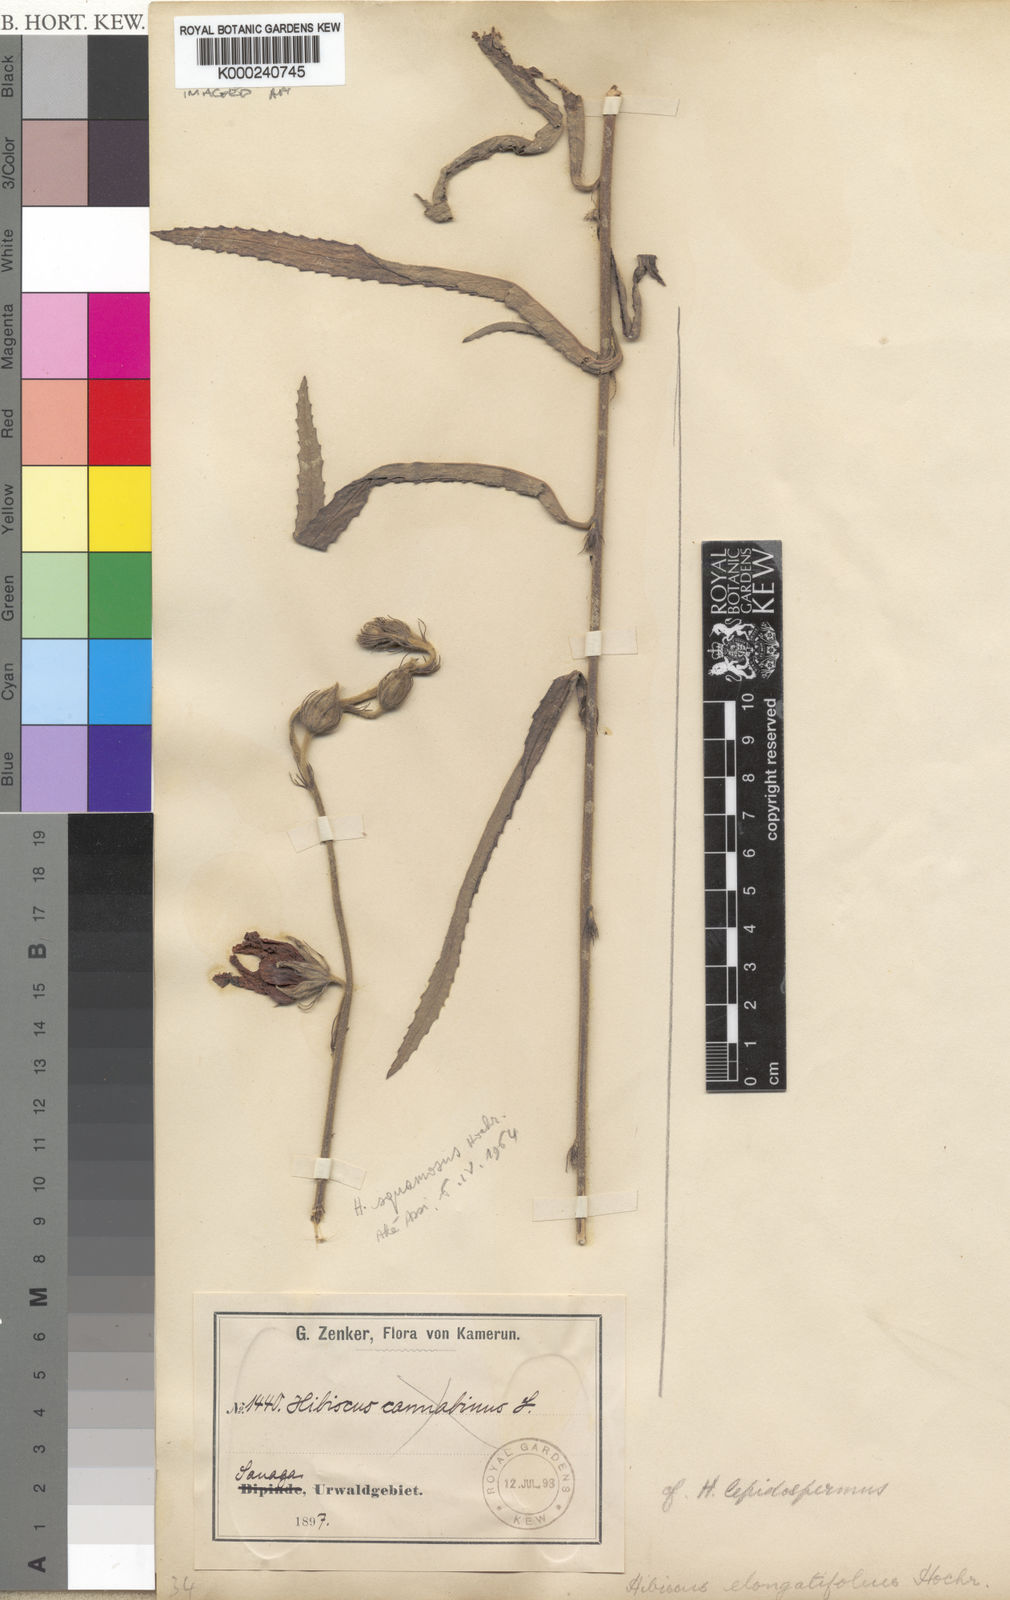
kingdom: Plantae
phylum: Tracheophyta
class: Magnoliopsida
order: Malvales
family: Malvaceae
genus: Hibiscus
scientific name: Hibiscus elongatifolius
